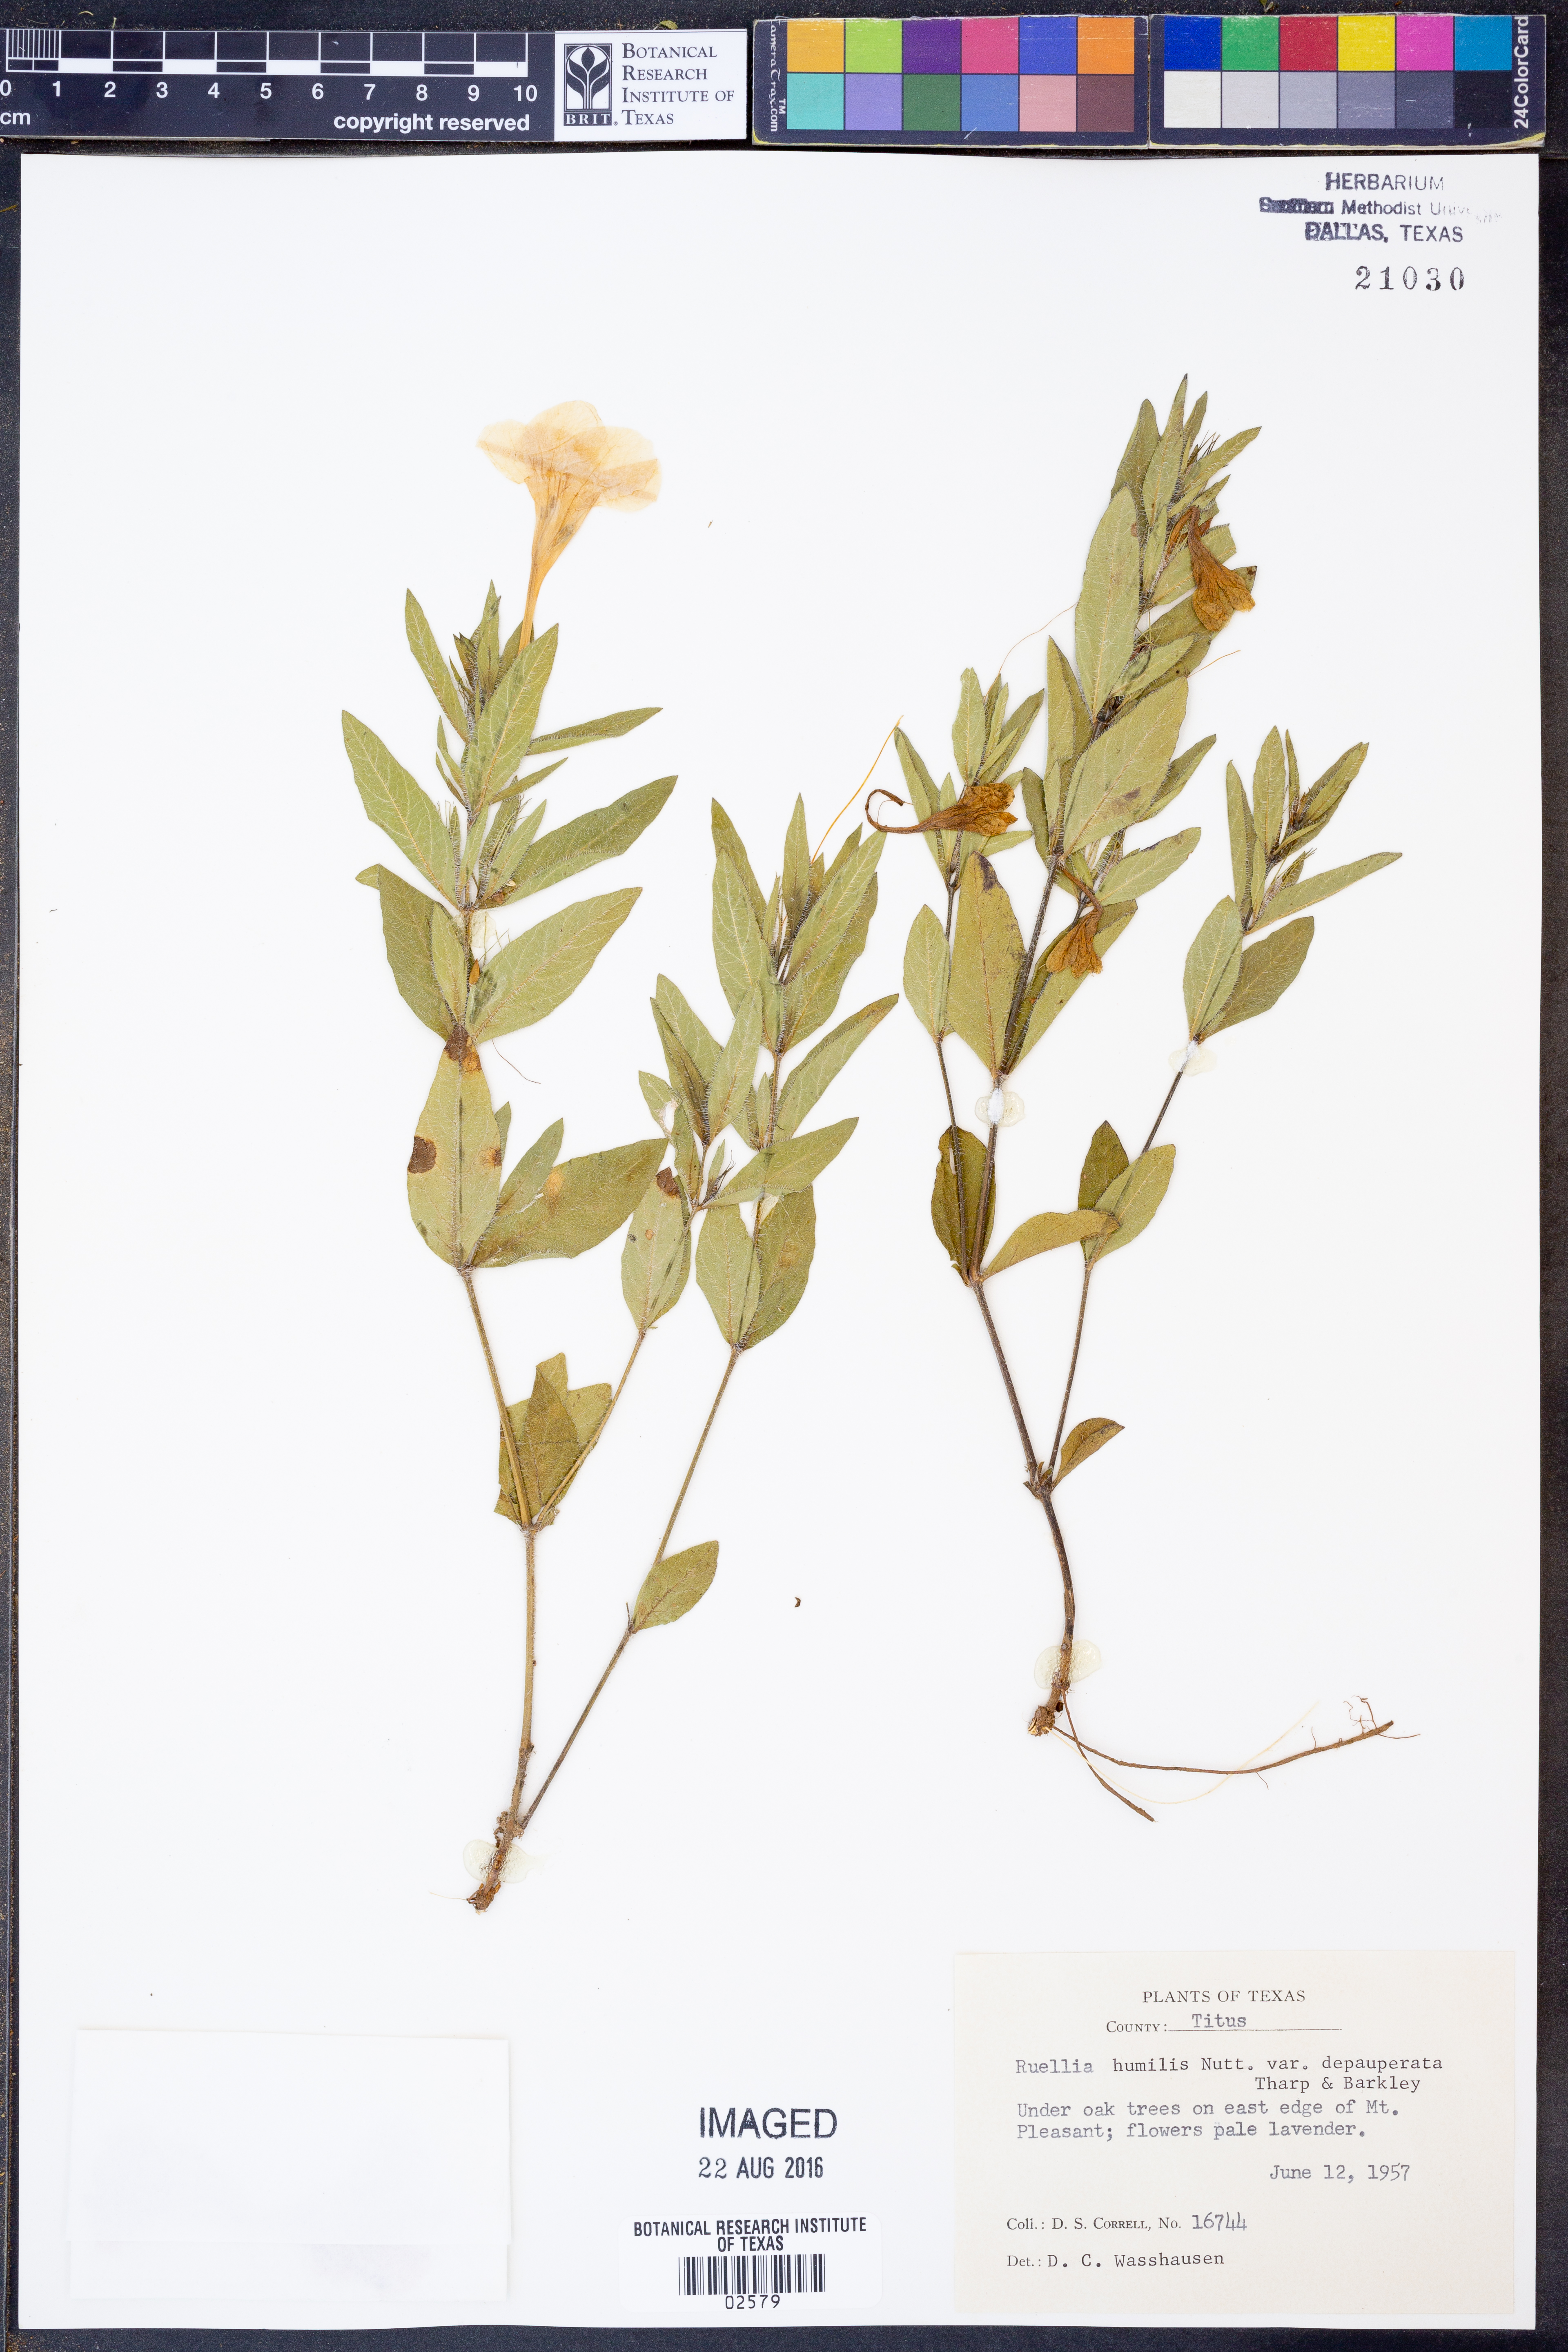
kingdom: Plantae
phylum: Tracheophyta
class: Magnoliopsida
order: Lamiales
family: Acanthaceae
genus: Ruellia
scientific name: Ruellia humilis
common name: Fringe-leaf ruellia
